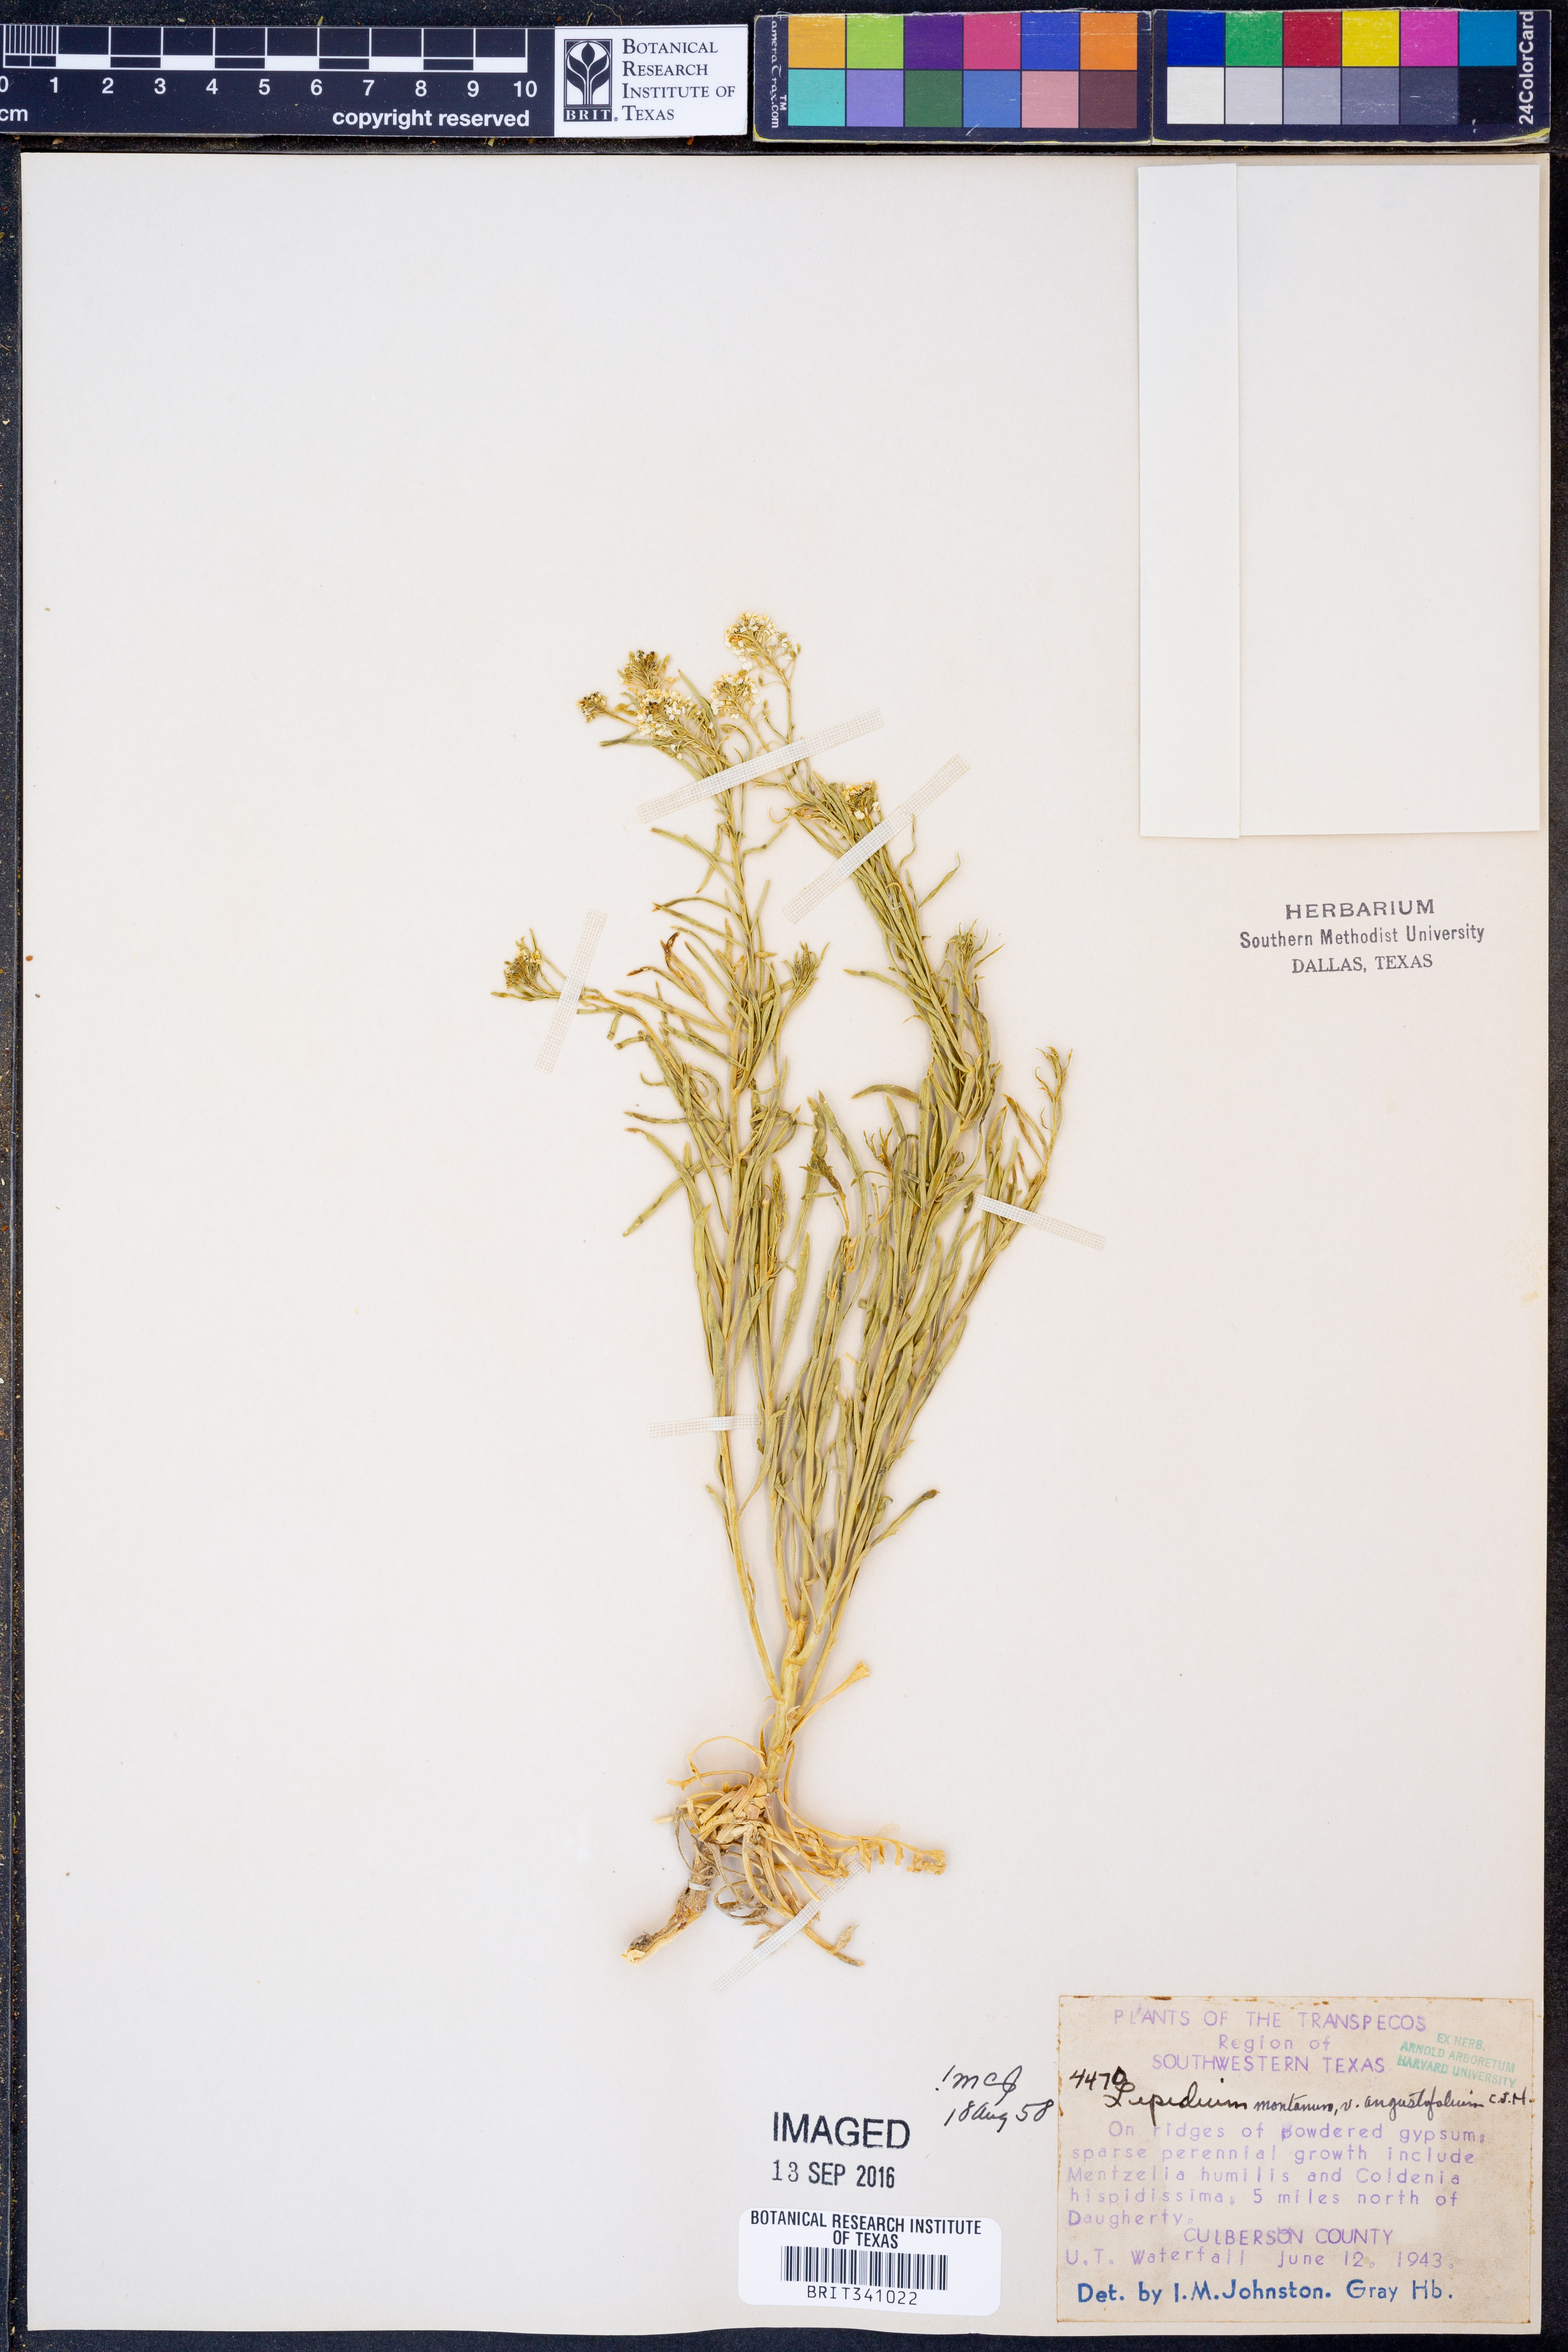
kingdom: Plantae
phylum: Tracheophyta
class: Magnoliopsida
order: Brassicales
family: Brassicaceae
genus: Lepidium
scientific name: Lepidium alyssoides
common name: Mesa pepperweed
